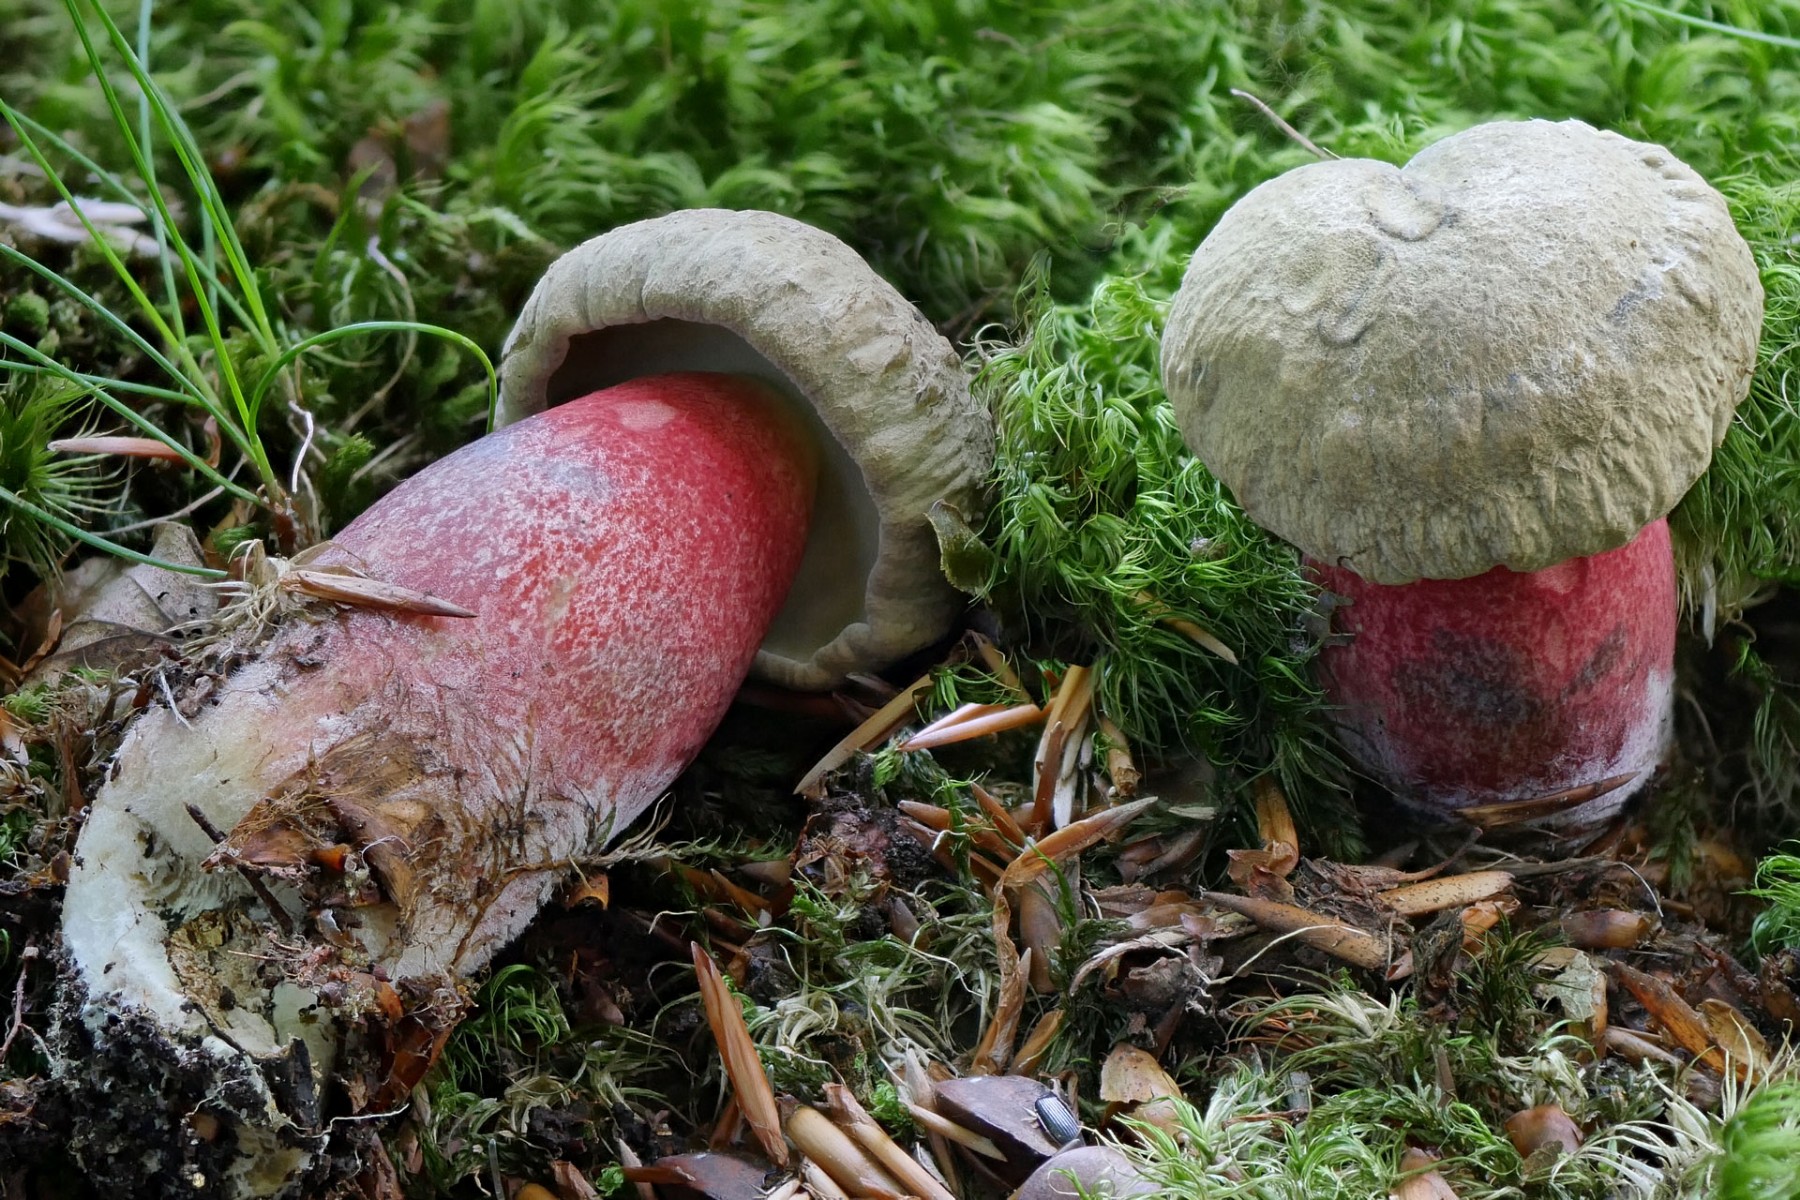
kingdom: Fungi
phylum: Basidiomycota
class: Agaricomycetes
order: Boletales
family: Boletaceae
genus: Caloboletus
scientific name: Caloboletus calopus
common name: skønfodet rørhat
